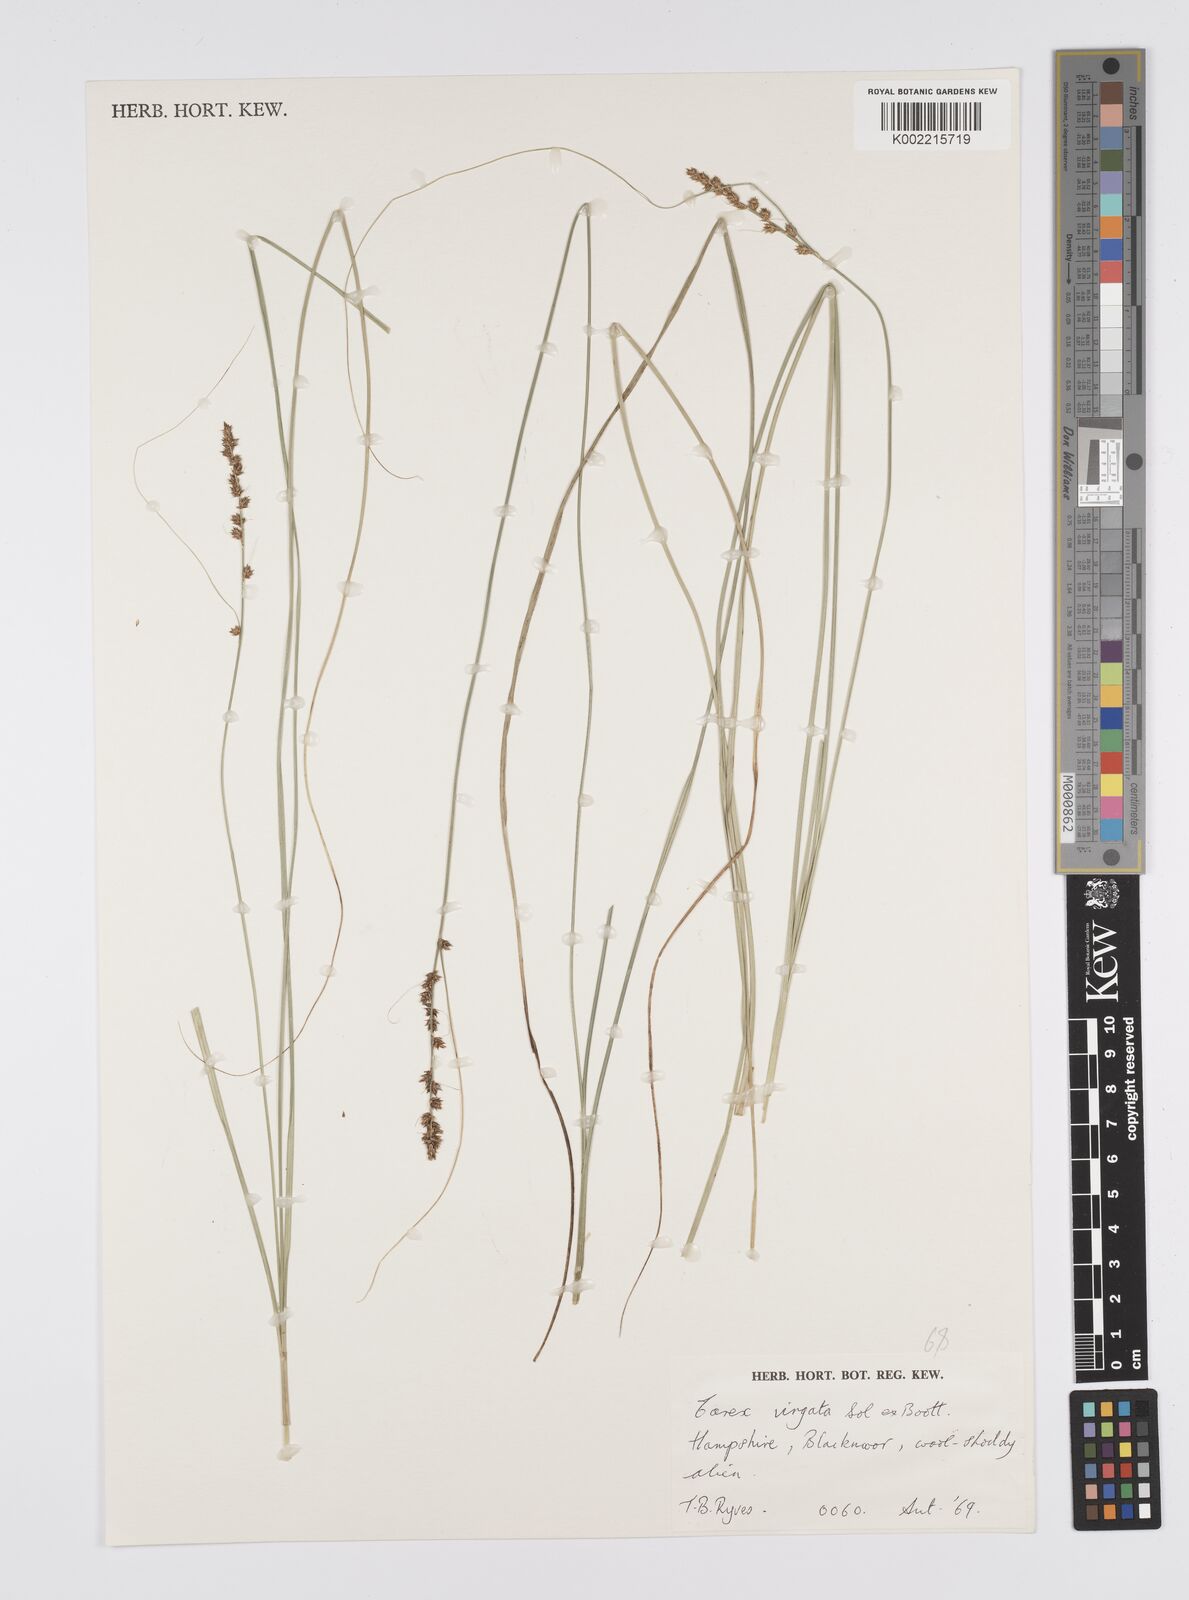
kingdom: Plantae
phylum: Tracheophyta
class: Liliopsida
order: Poales
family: Cyperaceae
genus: Carex
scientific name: Carex appressa
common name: Tussock sedge
